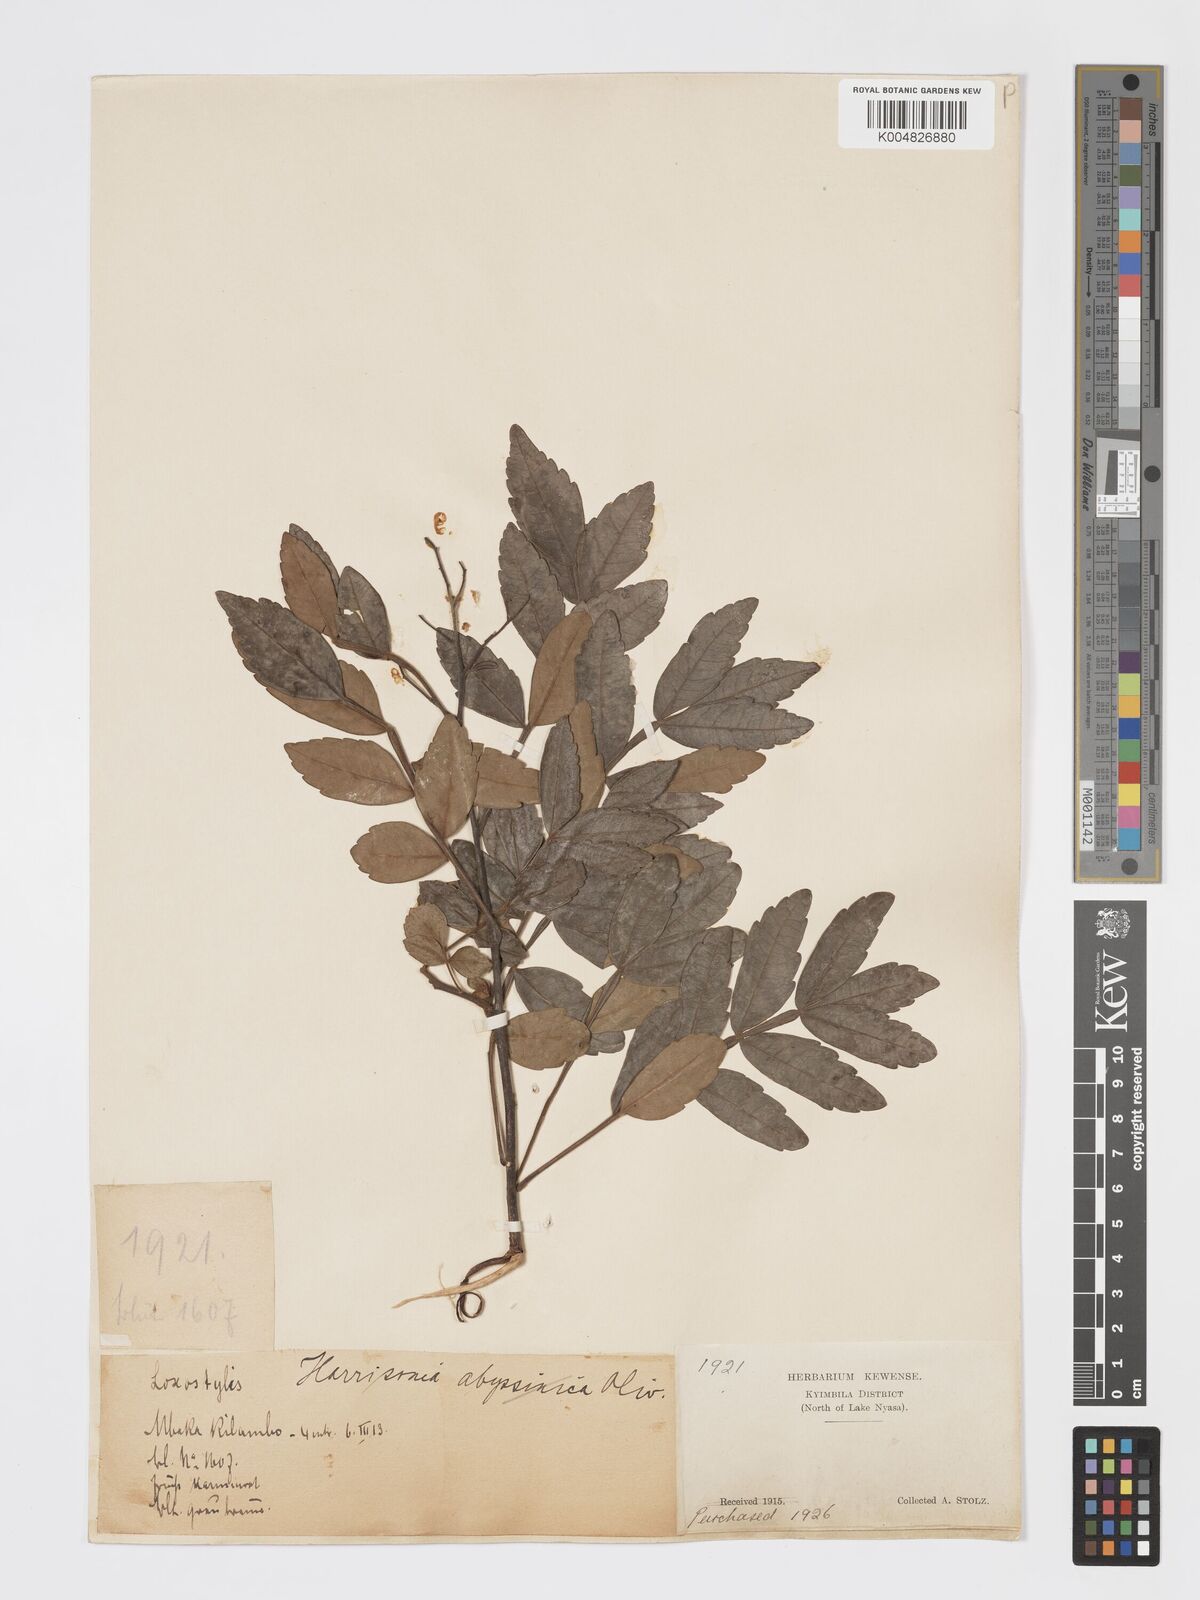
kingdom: Plantae
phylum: Tracheophyta
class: Magnoliopsida
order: Sapindales
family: Rutaceae
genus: Harrisonia
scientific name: Harrisonia abyssinica
